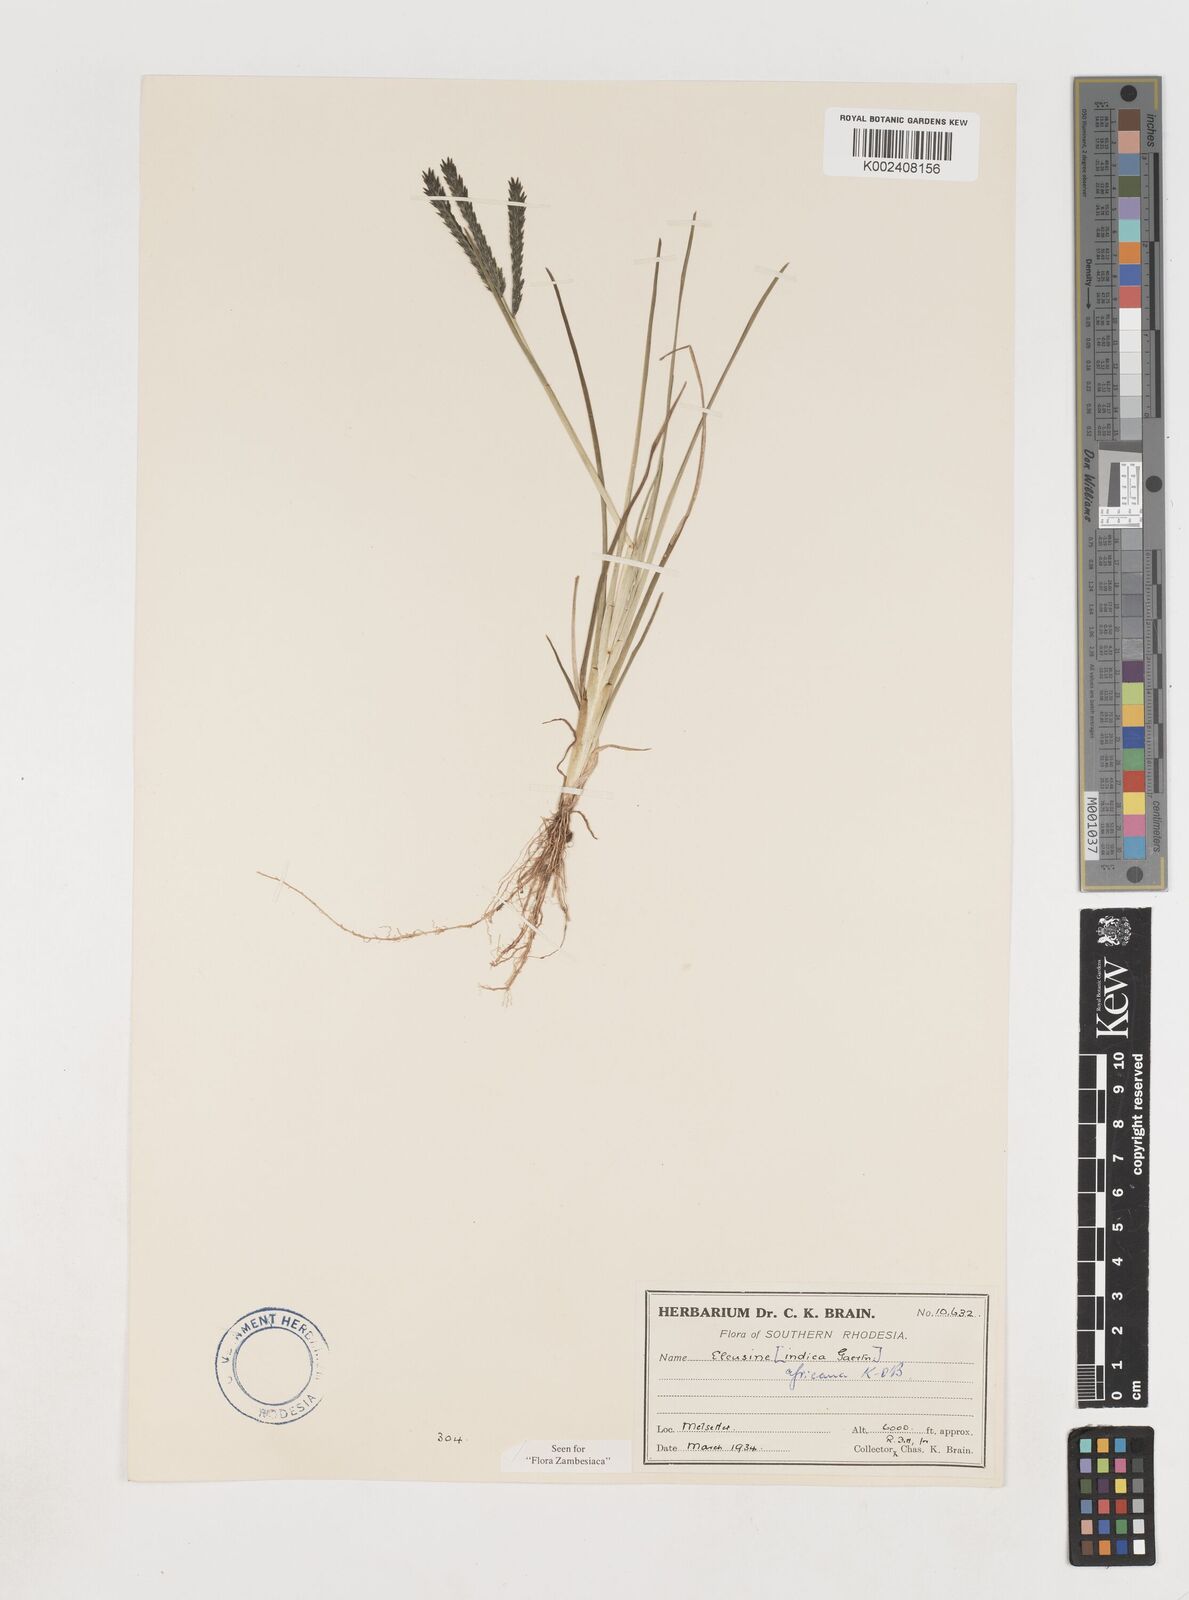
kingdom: Plantae
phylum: Tracheophyta
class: Liliopsida
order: Poales
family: Poaceae
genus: Eleusine
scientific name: Eleusine africana
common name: Wild african finger millet
